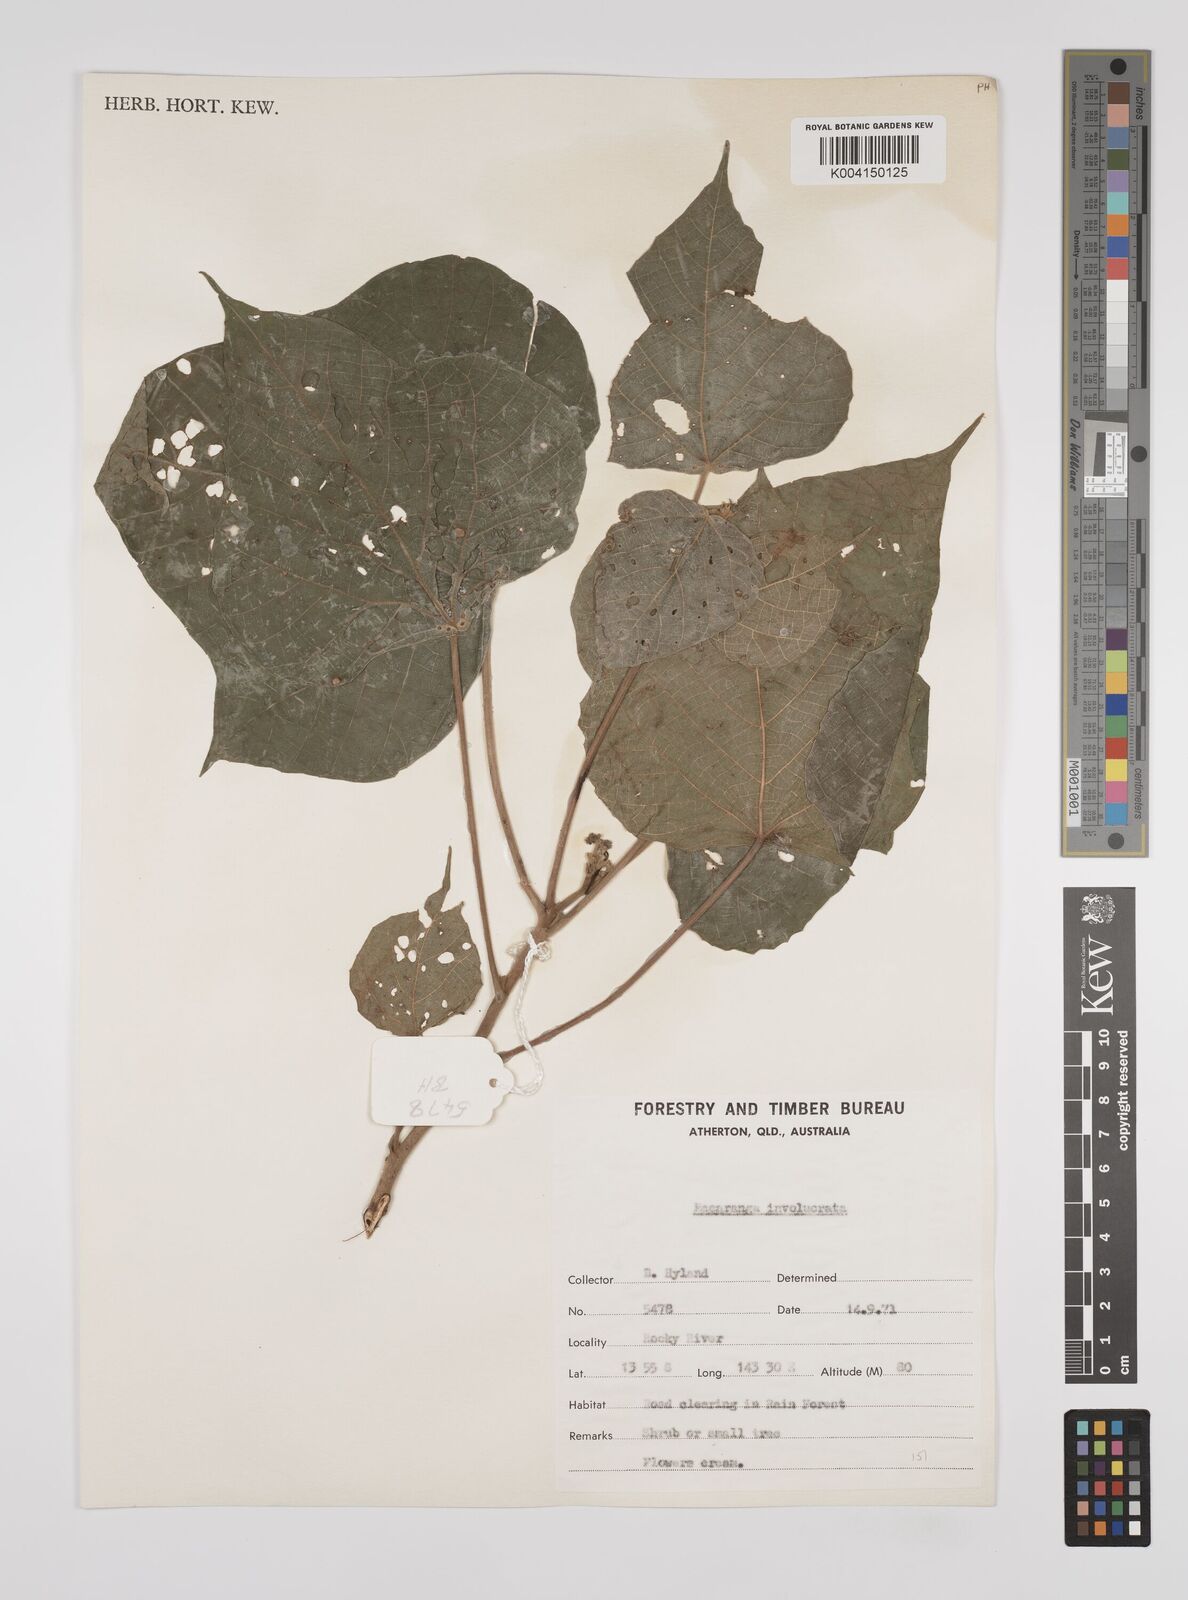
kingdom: Plantae
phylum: Tracheophyta
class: Magnoliopsida
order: Malpighiales
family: Euphorbiaceae
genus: Macaranga
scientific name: Macaranga involucrata
